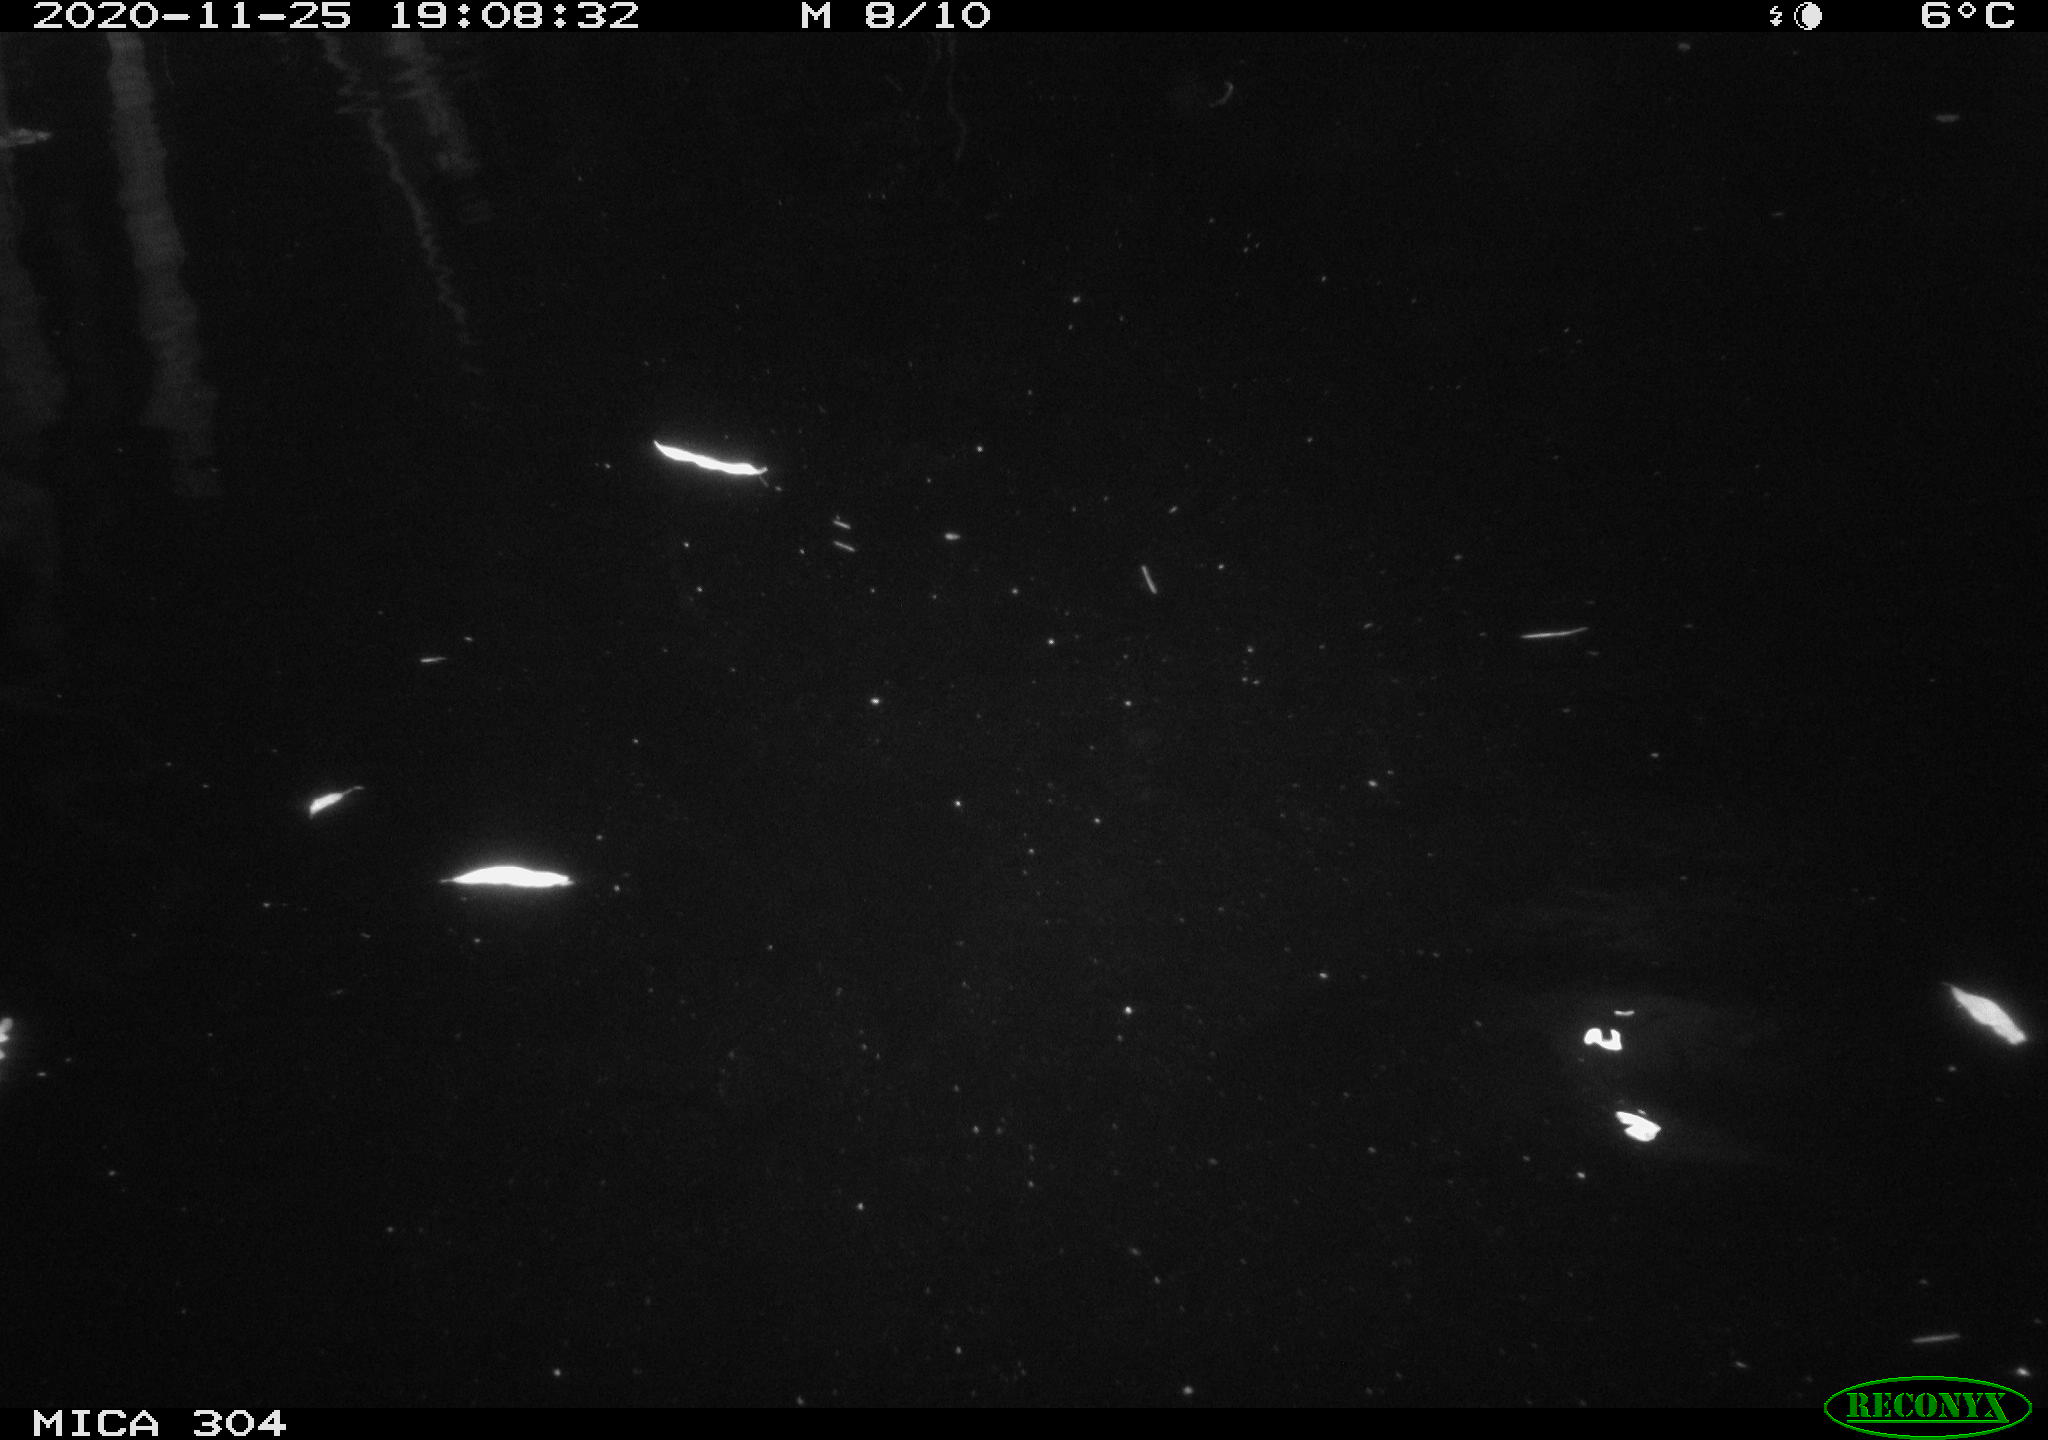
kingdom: Animalia
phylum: Chordata
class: Mammalia
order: Rodentia
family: Muridae
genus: Rattus
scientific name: Rattus norvegicus
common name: Brown rat
